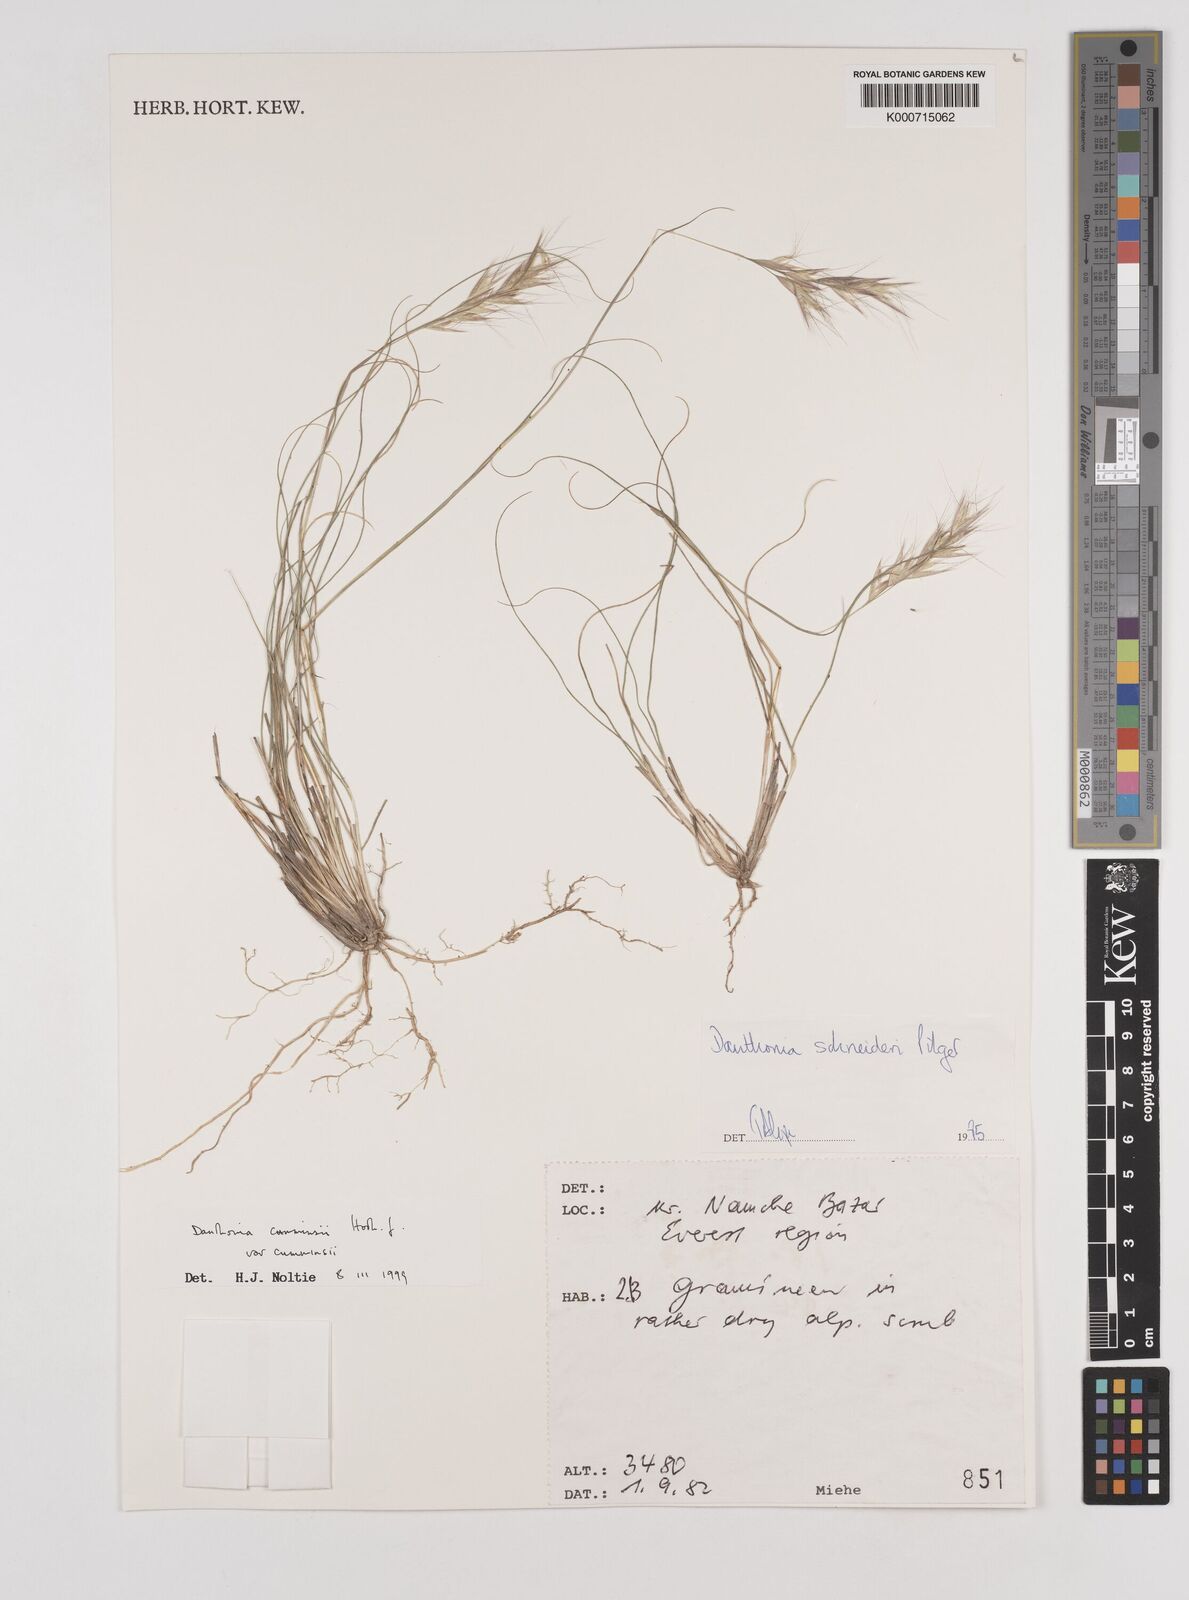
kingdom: Plantae
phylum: Tracheophyta
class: Liliopsida
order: Poales
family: Poaceae
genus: Rytidosperma
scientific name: Rytidosperma
